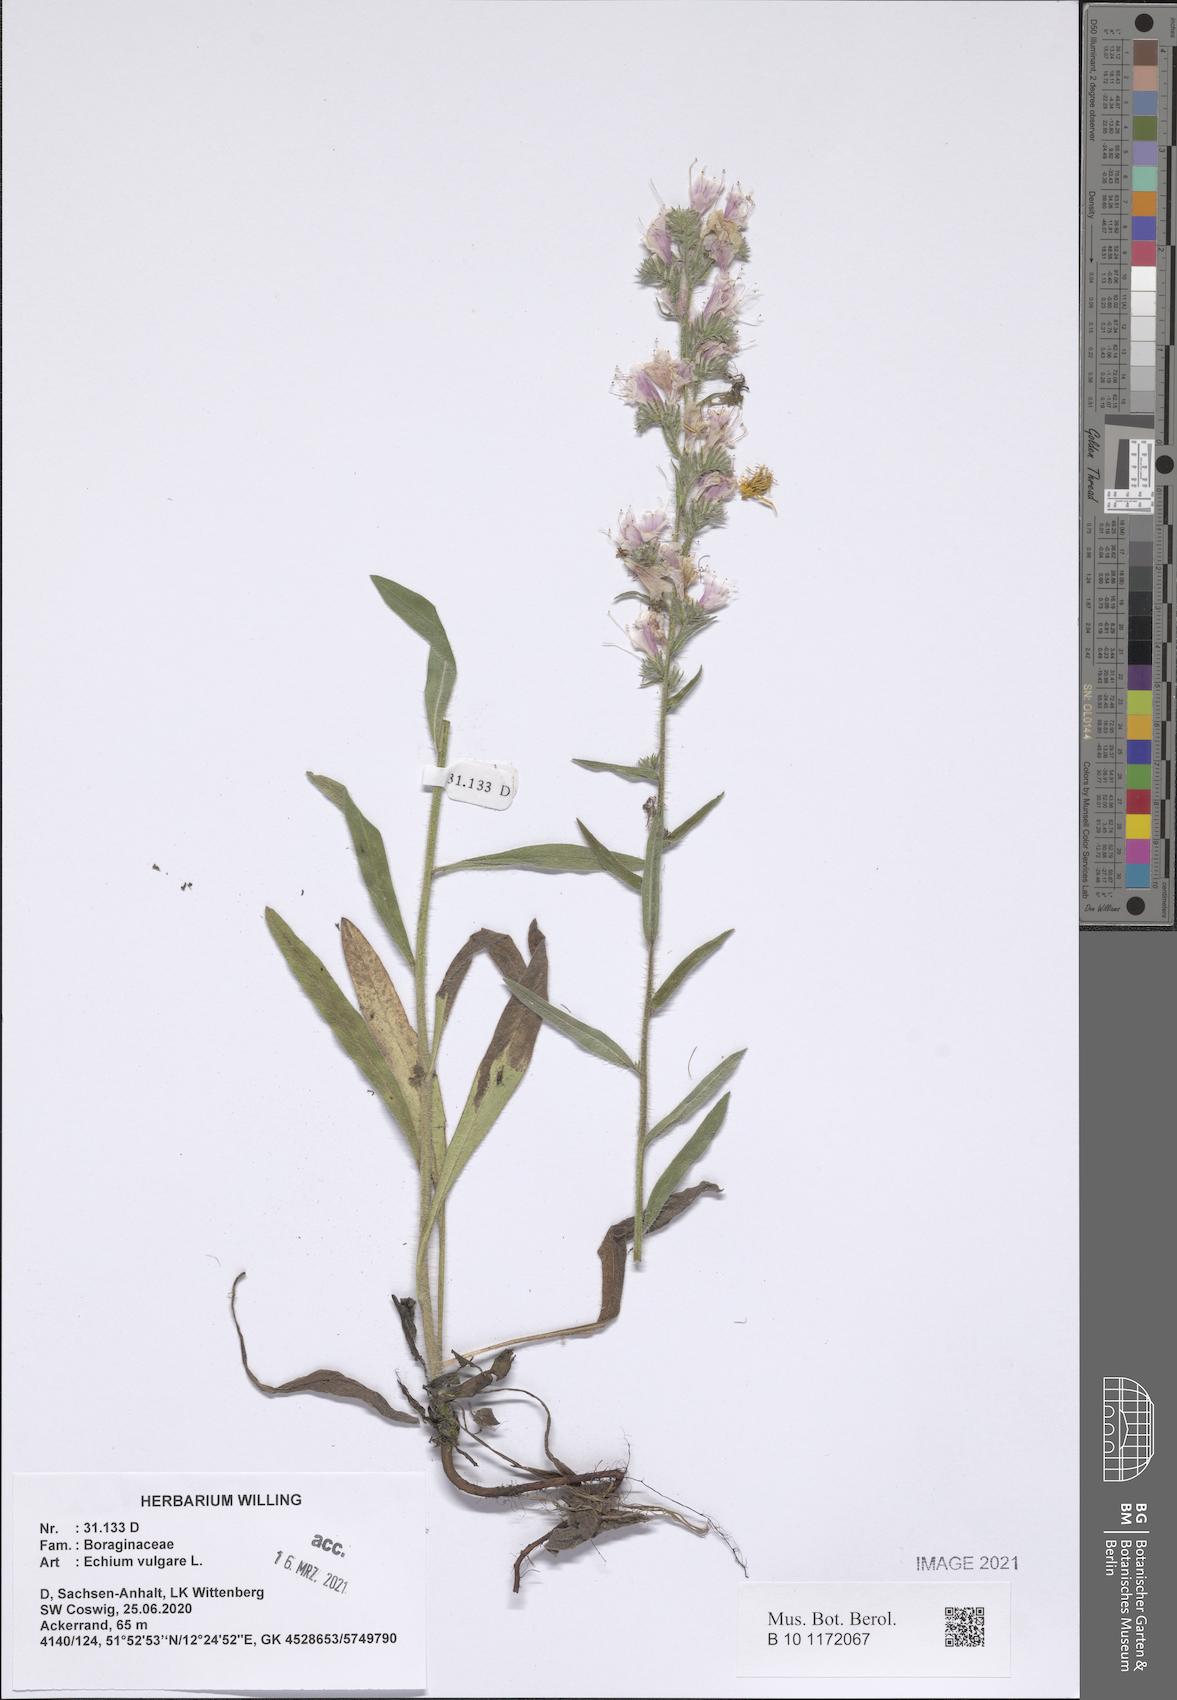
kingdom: Plantae
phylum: Tracheophyta
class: Magnoliopsida
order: Boraginales
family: Boraginaceae
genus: Echium
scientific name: Echium vulgare
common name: Common viper's bugloss
